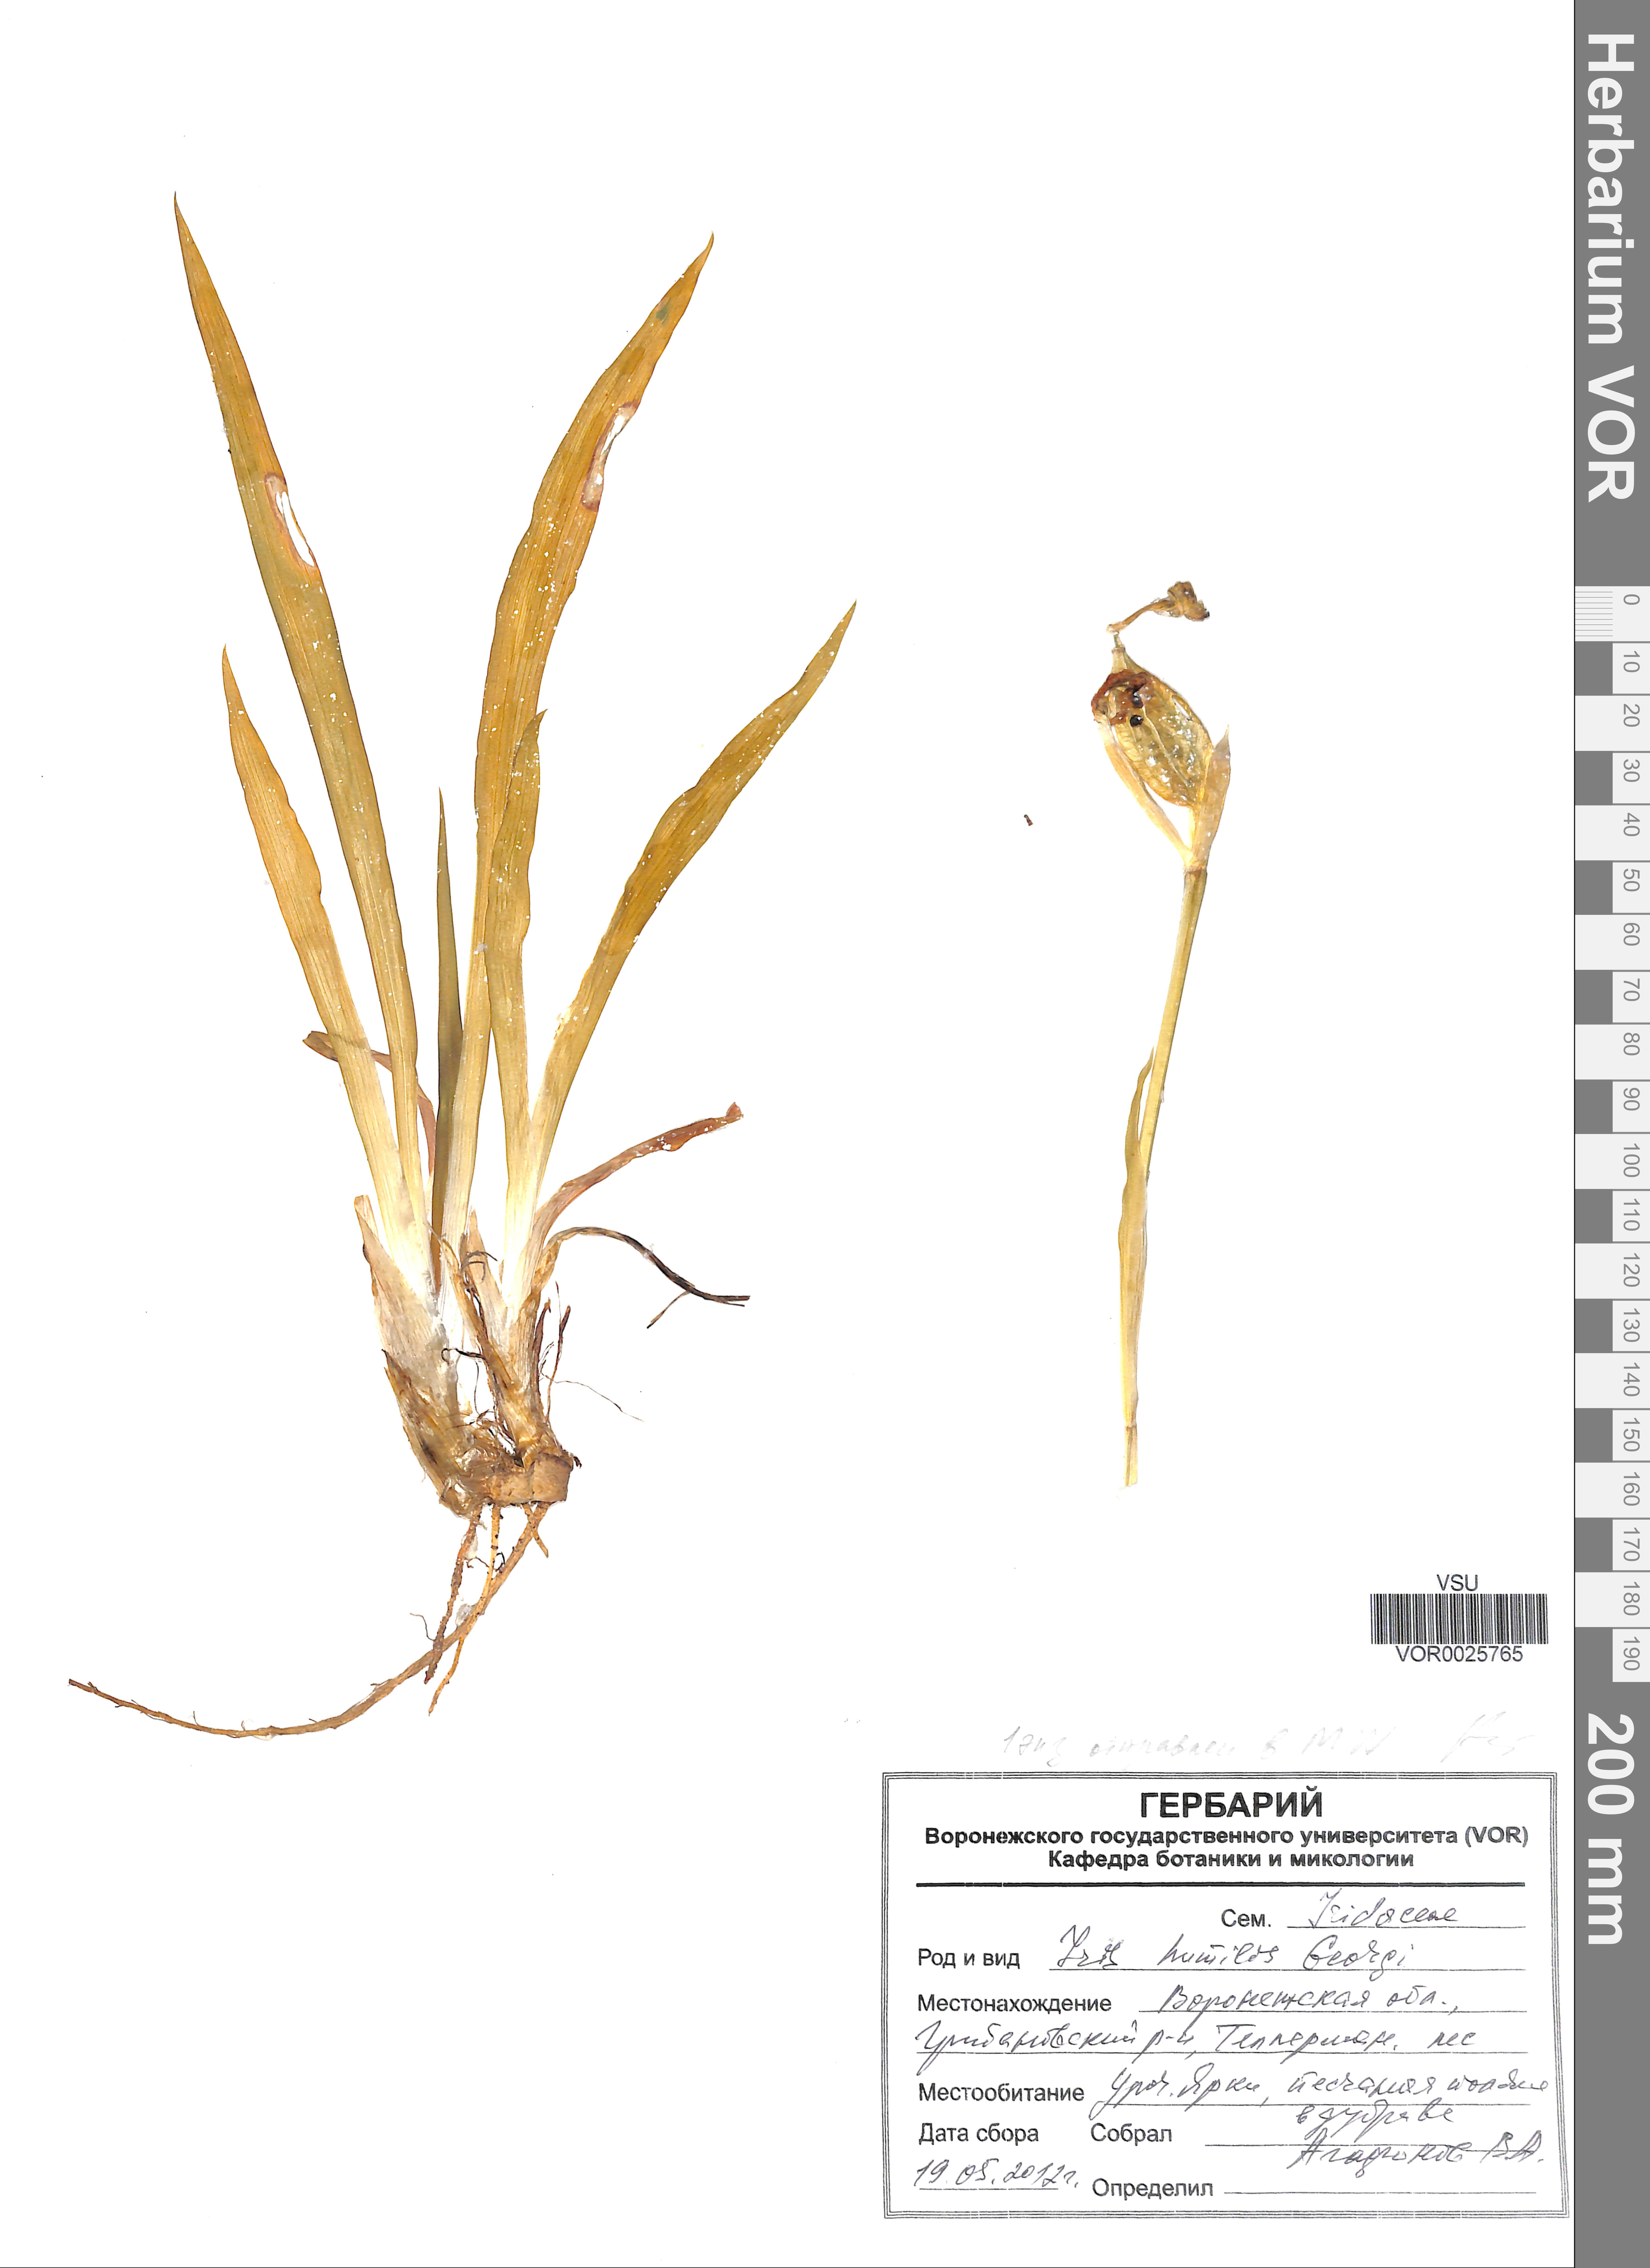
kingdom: Plantae
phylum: Tracheophyta
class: Liliopsida
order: Asparagales
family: Iridaceae
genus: Iris
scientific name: Iris humilis
